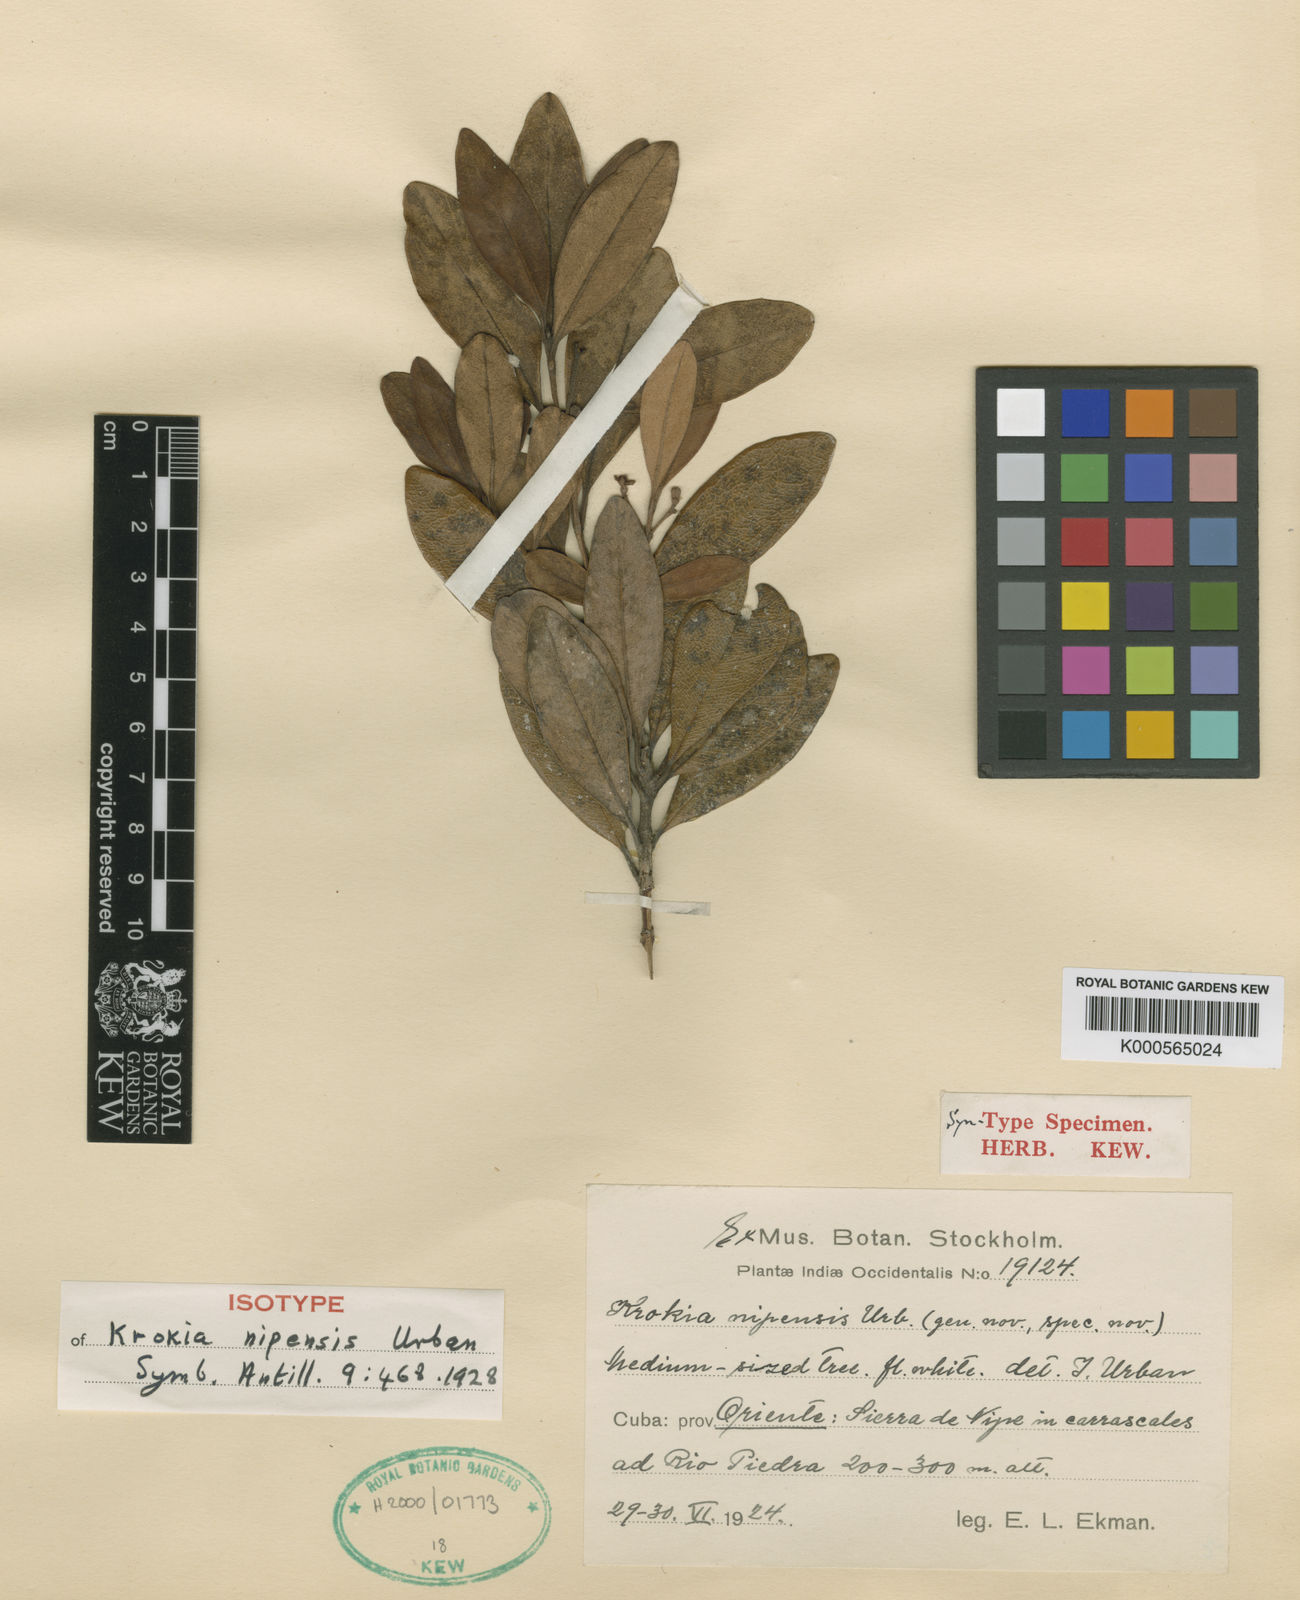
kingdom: Plantae
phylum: Tracheophyta
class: Magnoliopsida
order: Myrtales
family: Myrtaceae
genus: Pimenta
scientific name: Pimenta cainitoides
